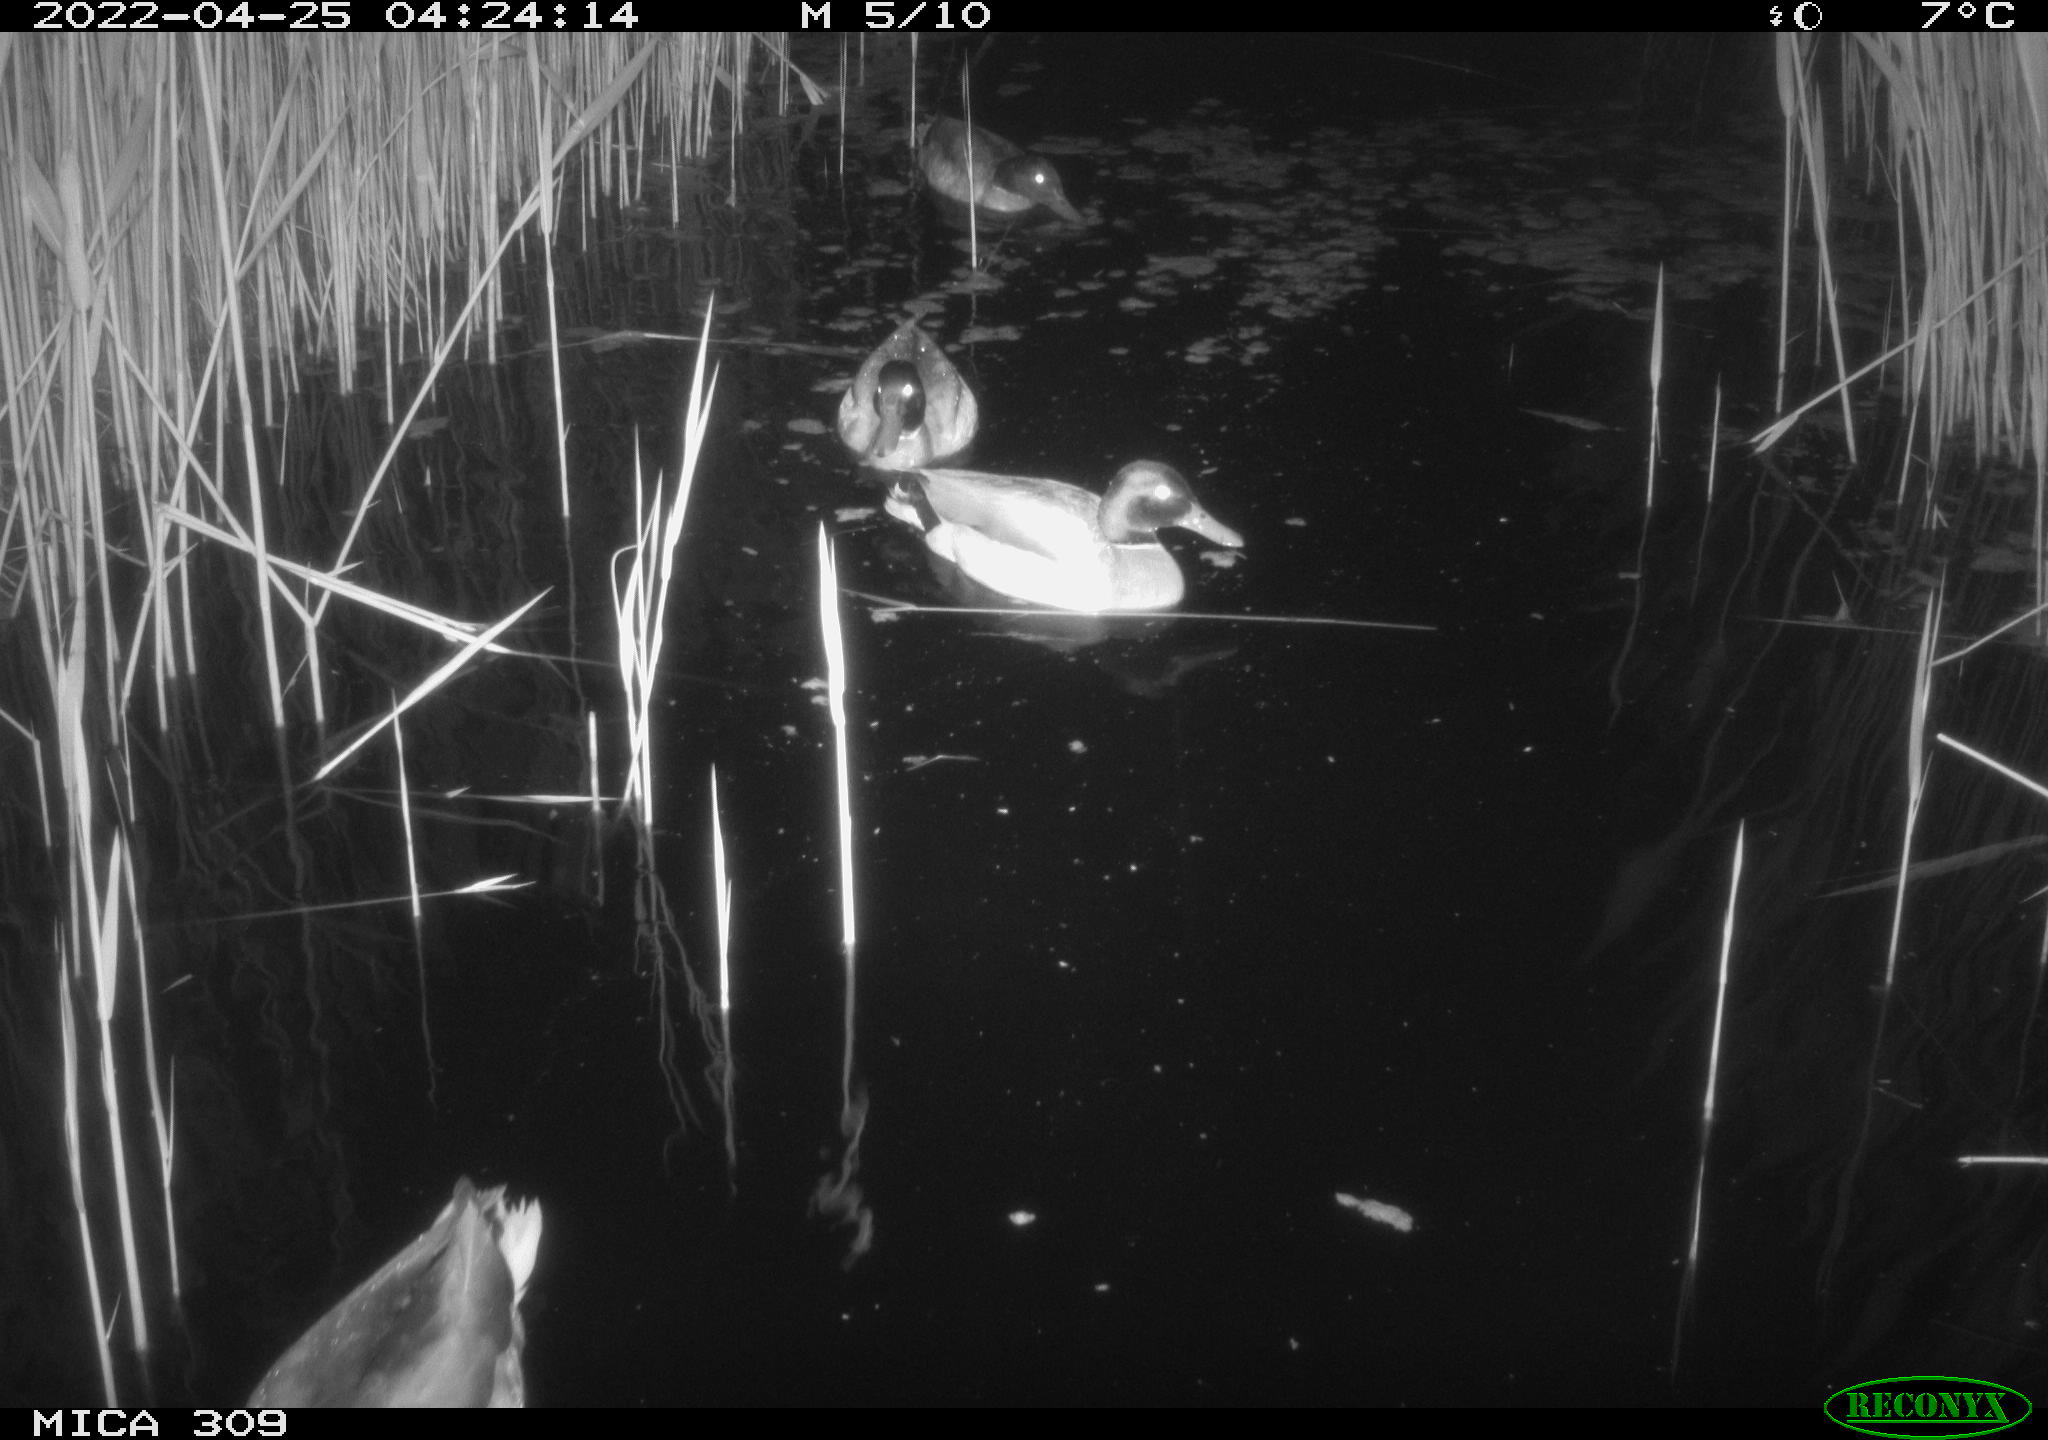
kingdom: Animalia
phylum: Chordata
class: Aves
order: Anseriformes
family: Anatidae
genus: Anas
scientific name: Anas platyrhynchos
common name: Mallard
